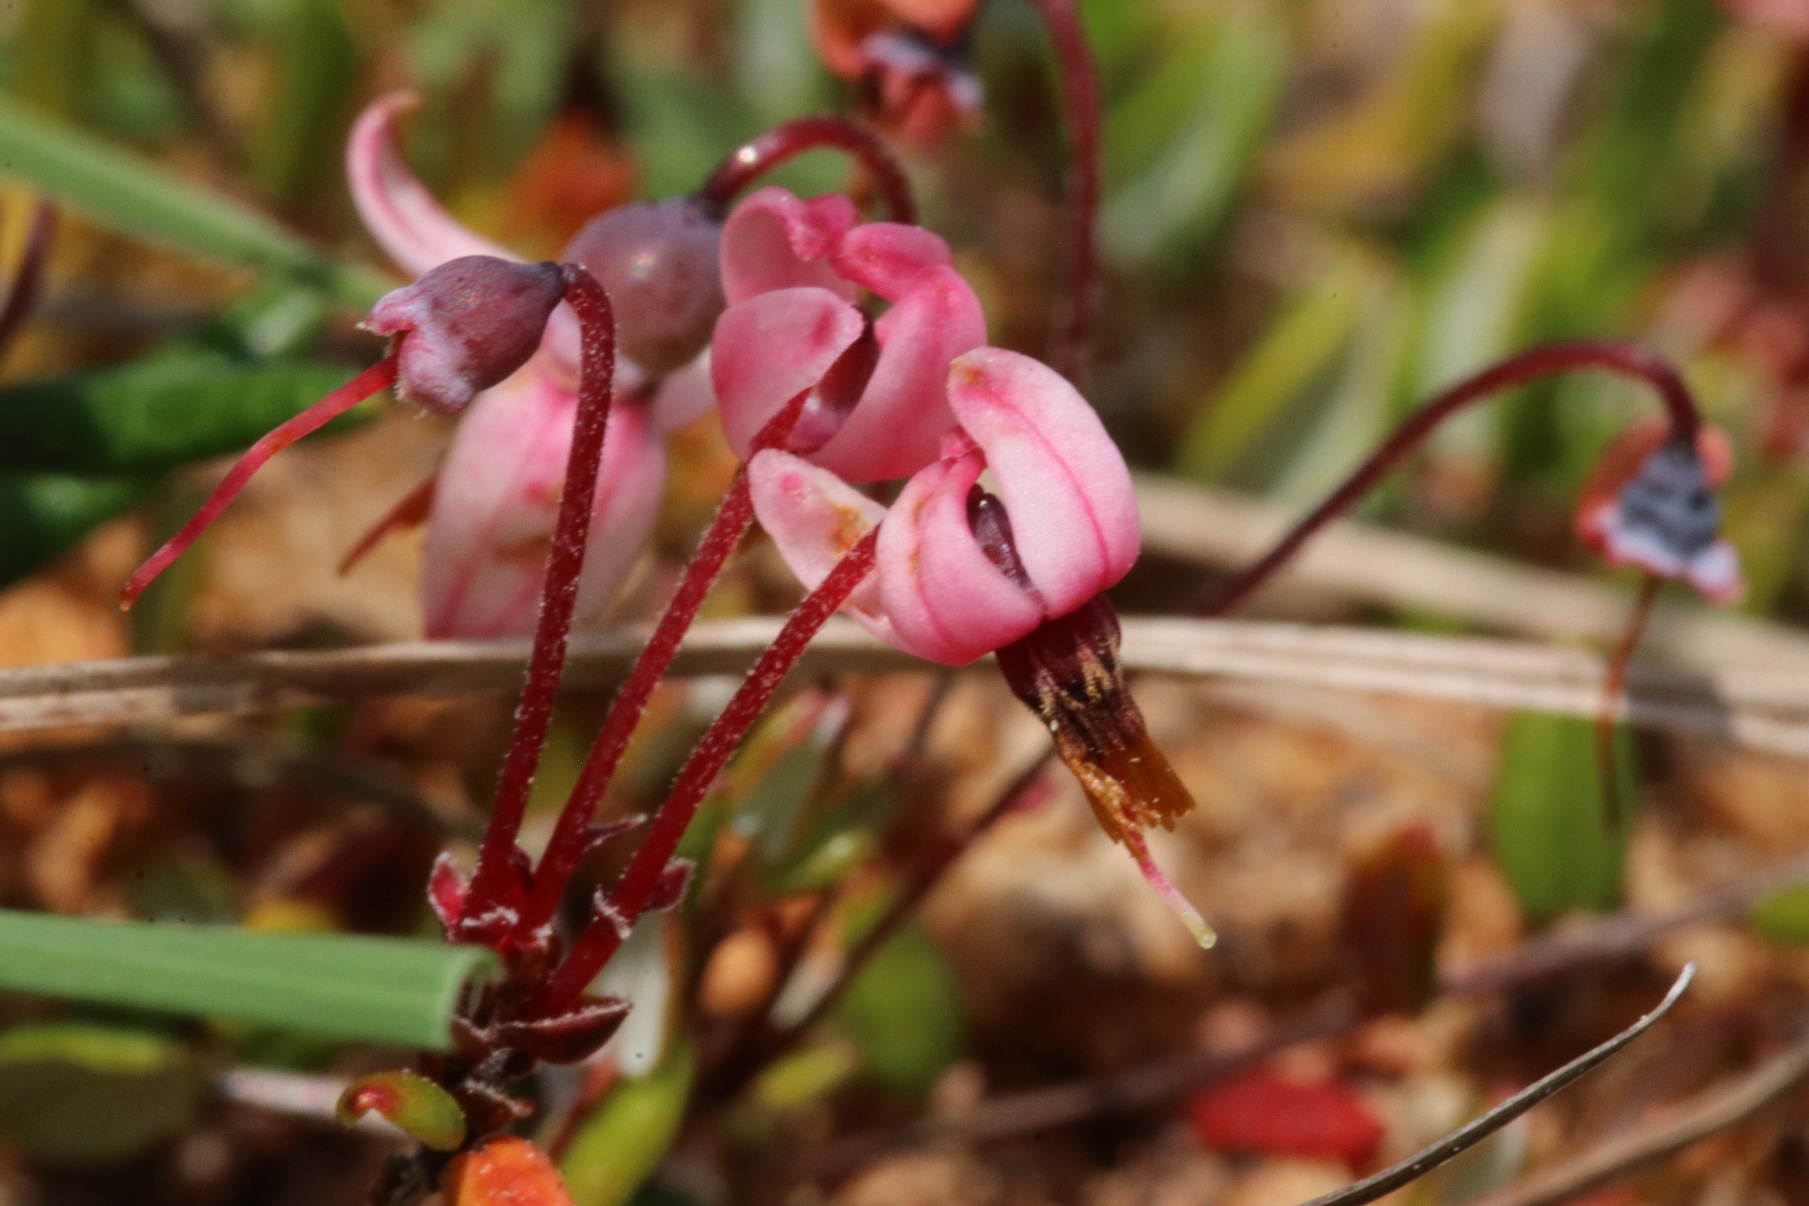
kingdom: Plantae
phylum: Tracheophyta
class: Magnoliopsida
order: Ericales
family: Ericaceae
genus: Vaccinium
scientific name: Vaccinium oxycoccos
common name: Tranebær
